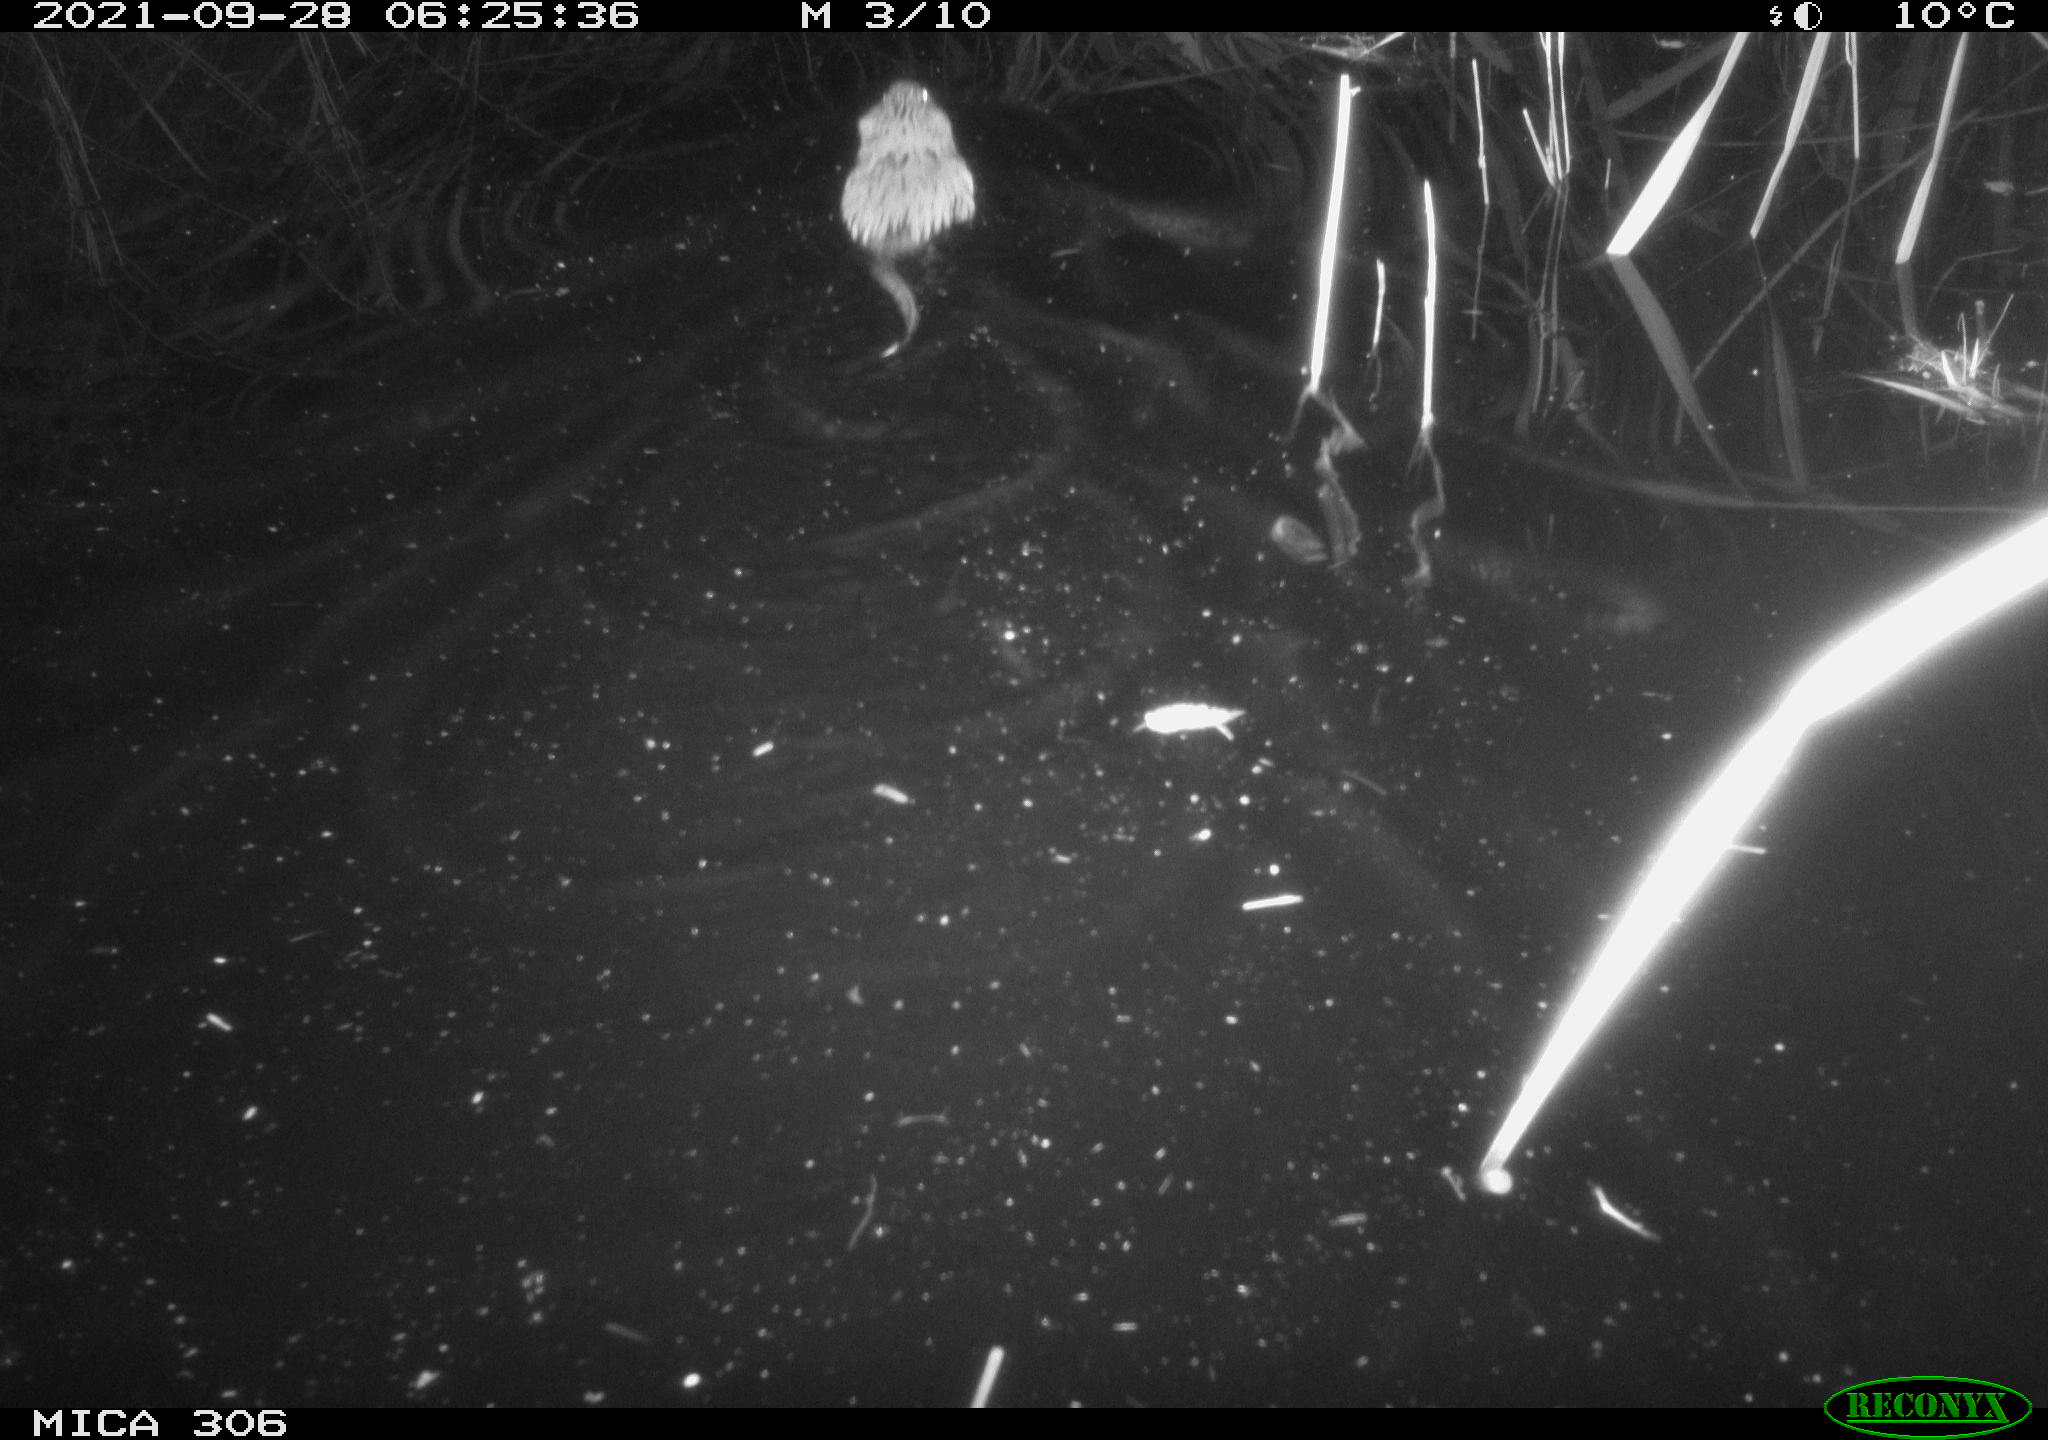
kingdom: Animalia
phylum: Chordata
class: Mammalia
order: Rodentia
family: Cricetidae
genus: Ondatra
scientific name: Ondatra zibethicus
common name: Muskrat
